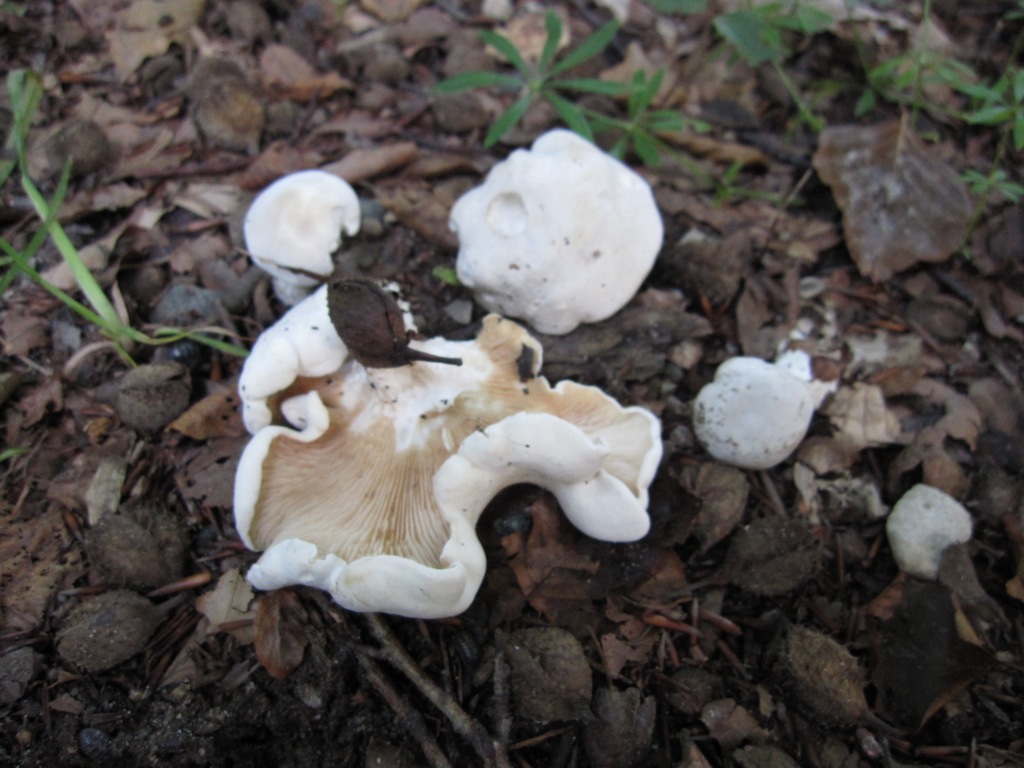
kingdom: Fungi
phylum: Basidiomycota
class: Agaricomycetes
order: Agaricales
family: Entolomataceae
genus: Clitopilus
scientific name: Clitopilus prunulus
